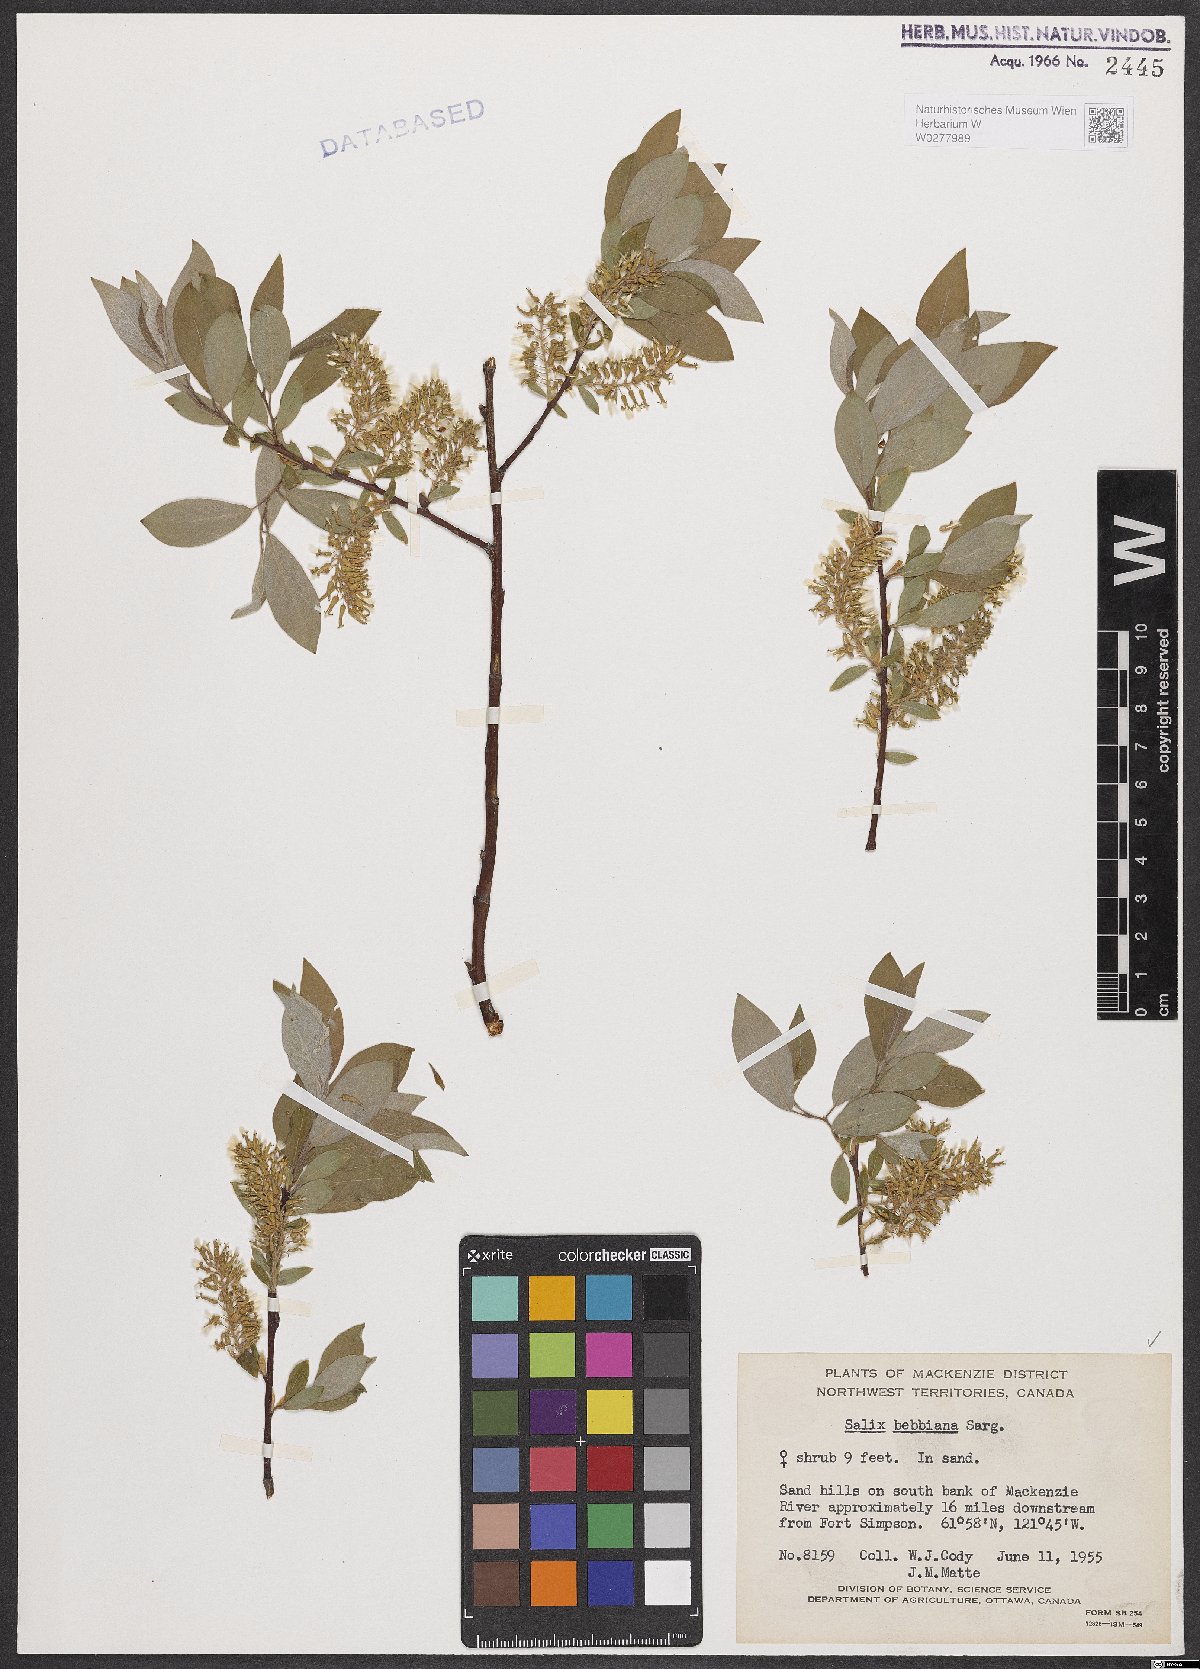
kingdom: Plantae
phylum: Tracheophyta
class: Magnoliopsida
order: Malpighiales
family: Salicaceae
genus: Salix
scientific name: Salix bebbiana
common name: Bebb's willow
